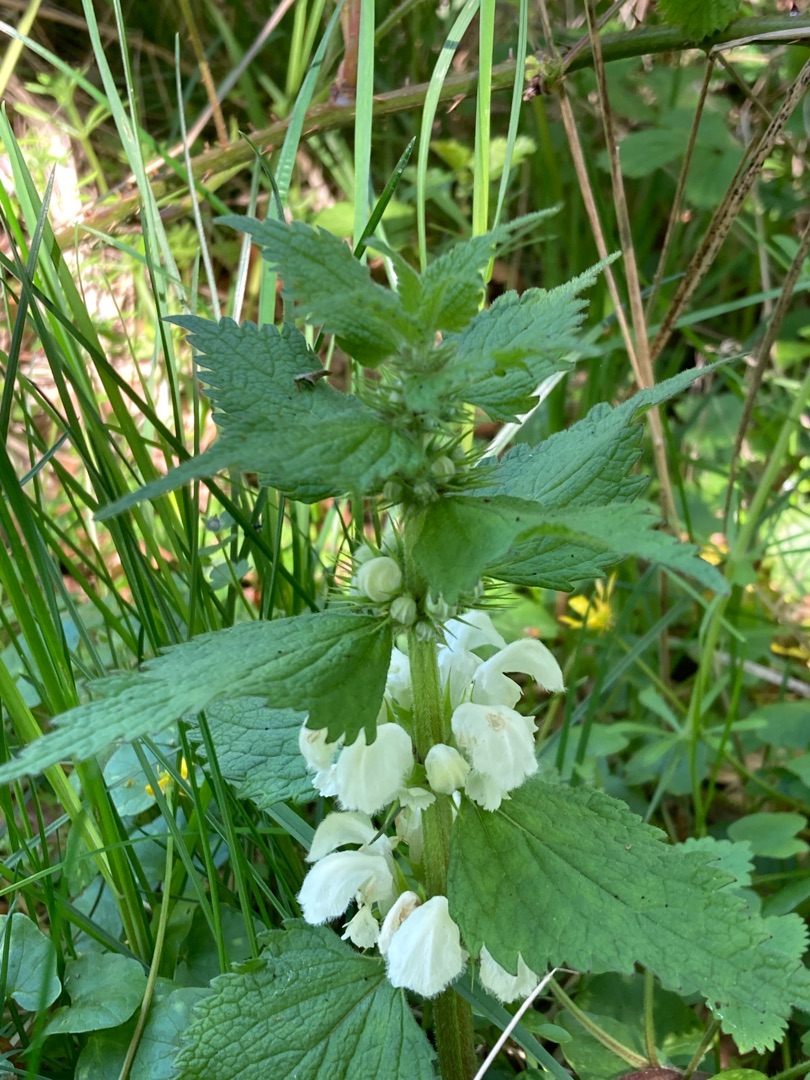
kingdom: Plantae
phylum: Tracheophyta
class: Magnoliopsida
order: Lamiales
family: Lamiaceae
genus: Lamium
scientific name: Lamium album
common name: Døvnælde
